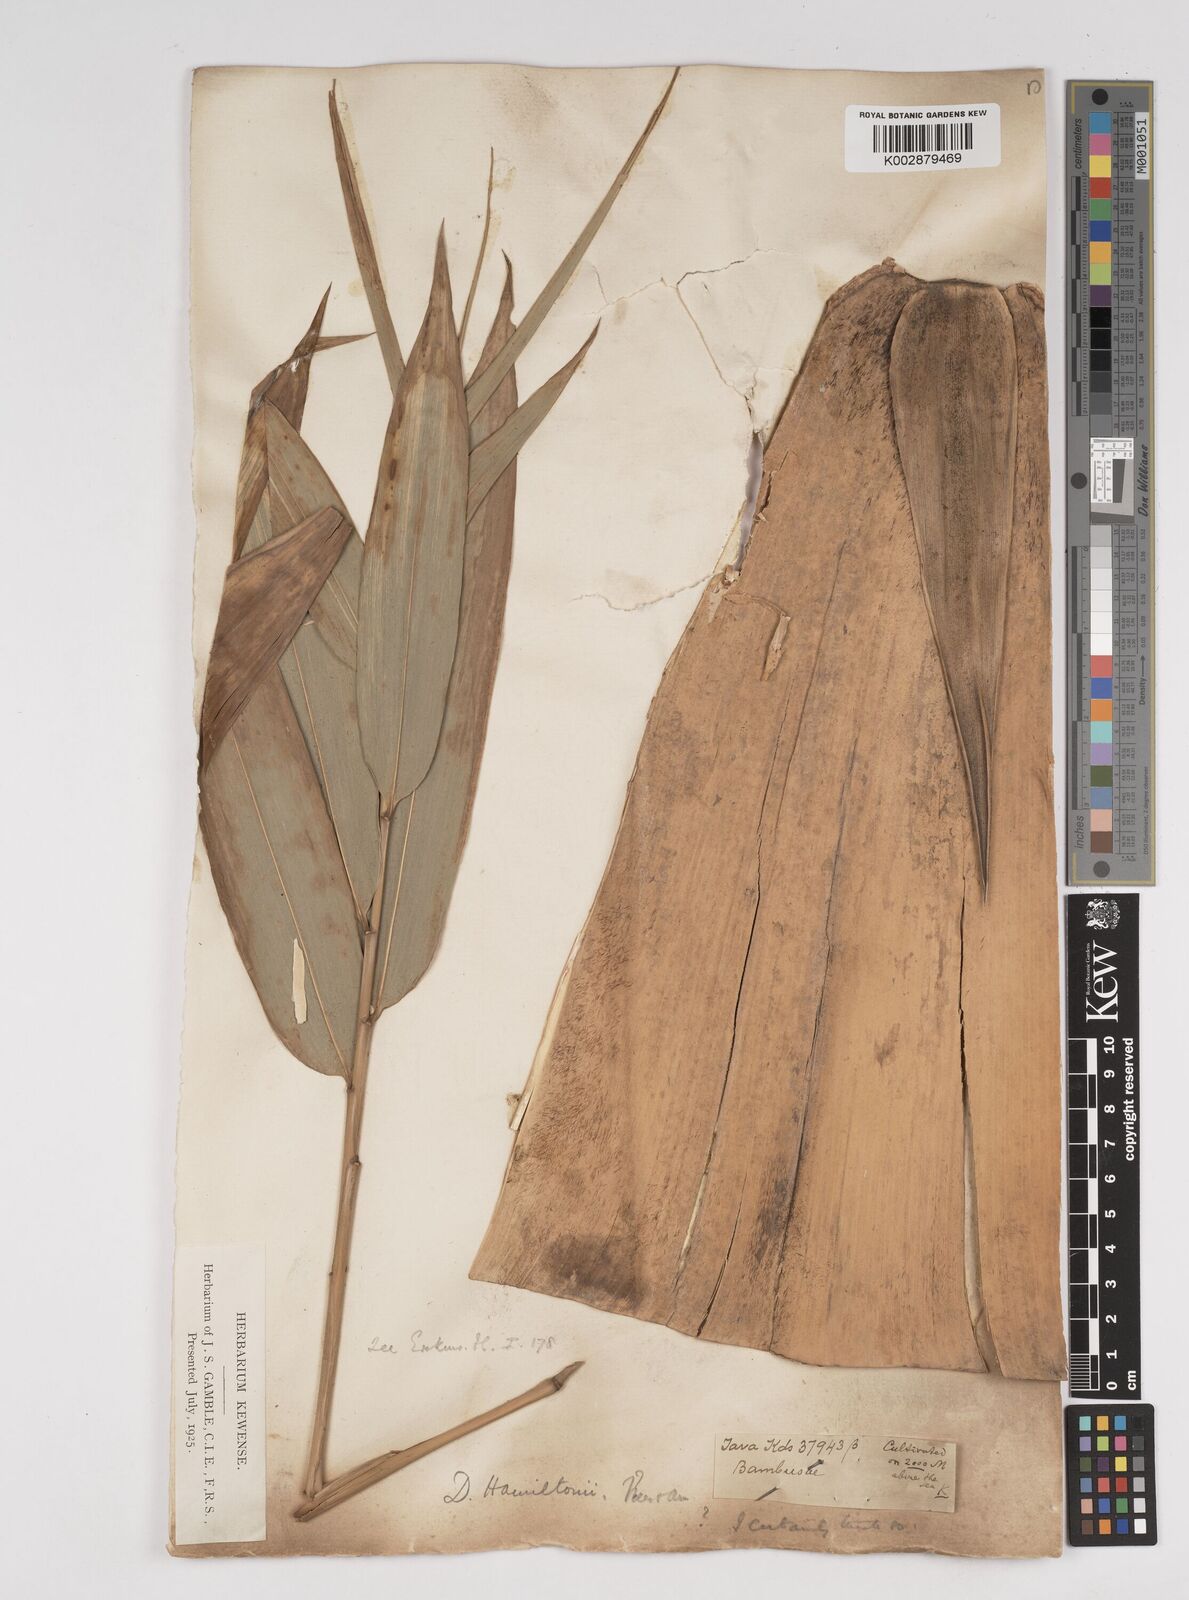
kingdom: Plantae
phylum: Tracheophyta
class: Liliopsida
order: Poales
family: Poaceae
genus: Dendrocalamus
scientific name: Dendrocalamus hamiltonii
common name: Tama bamboo
